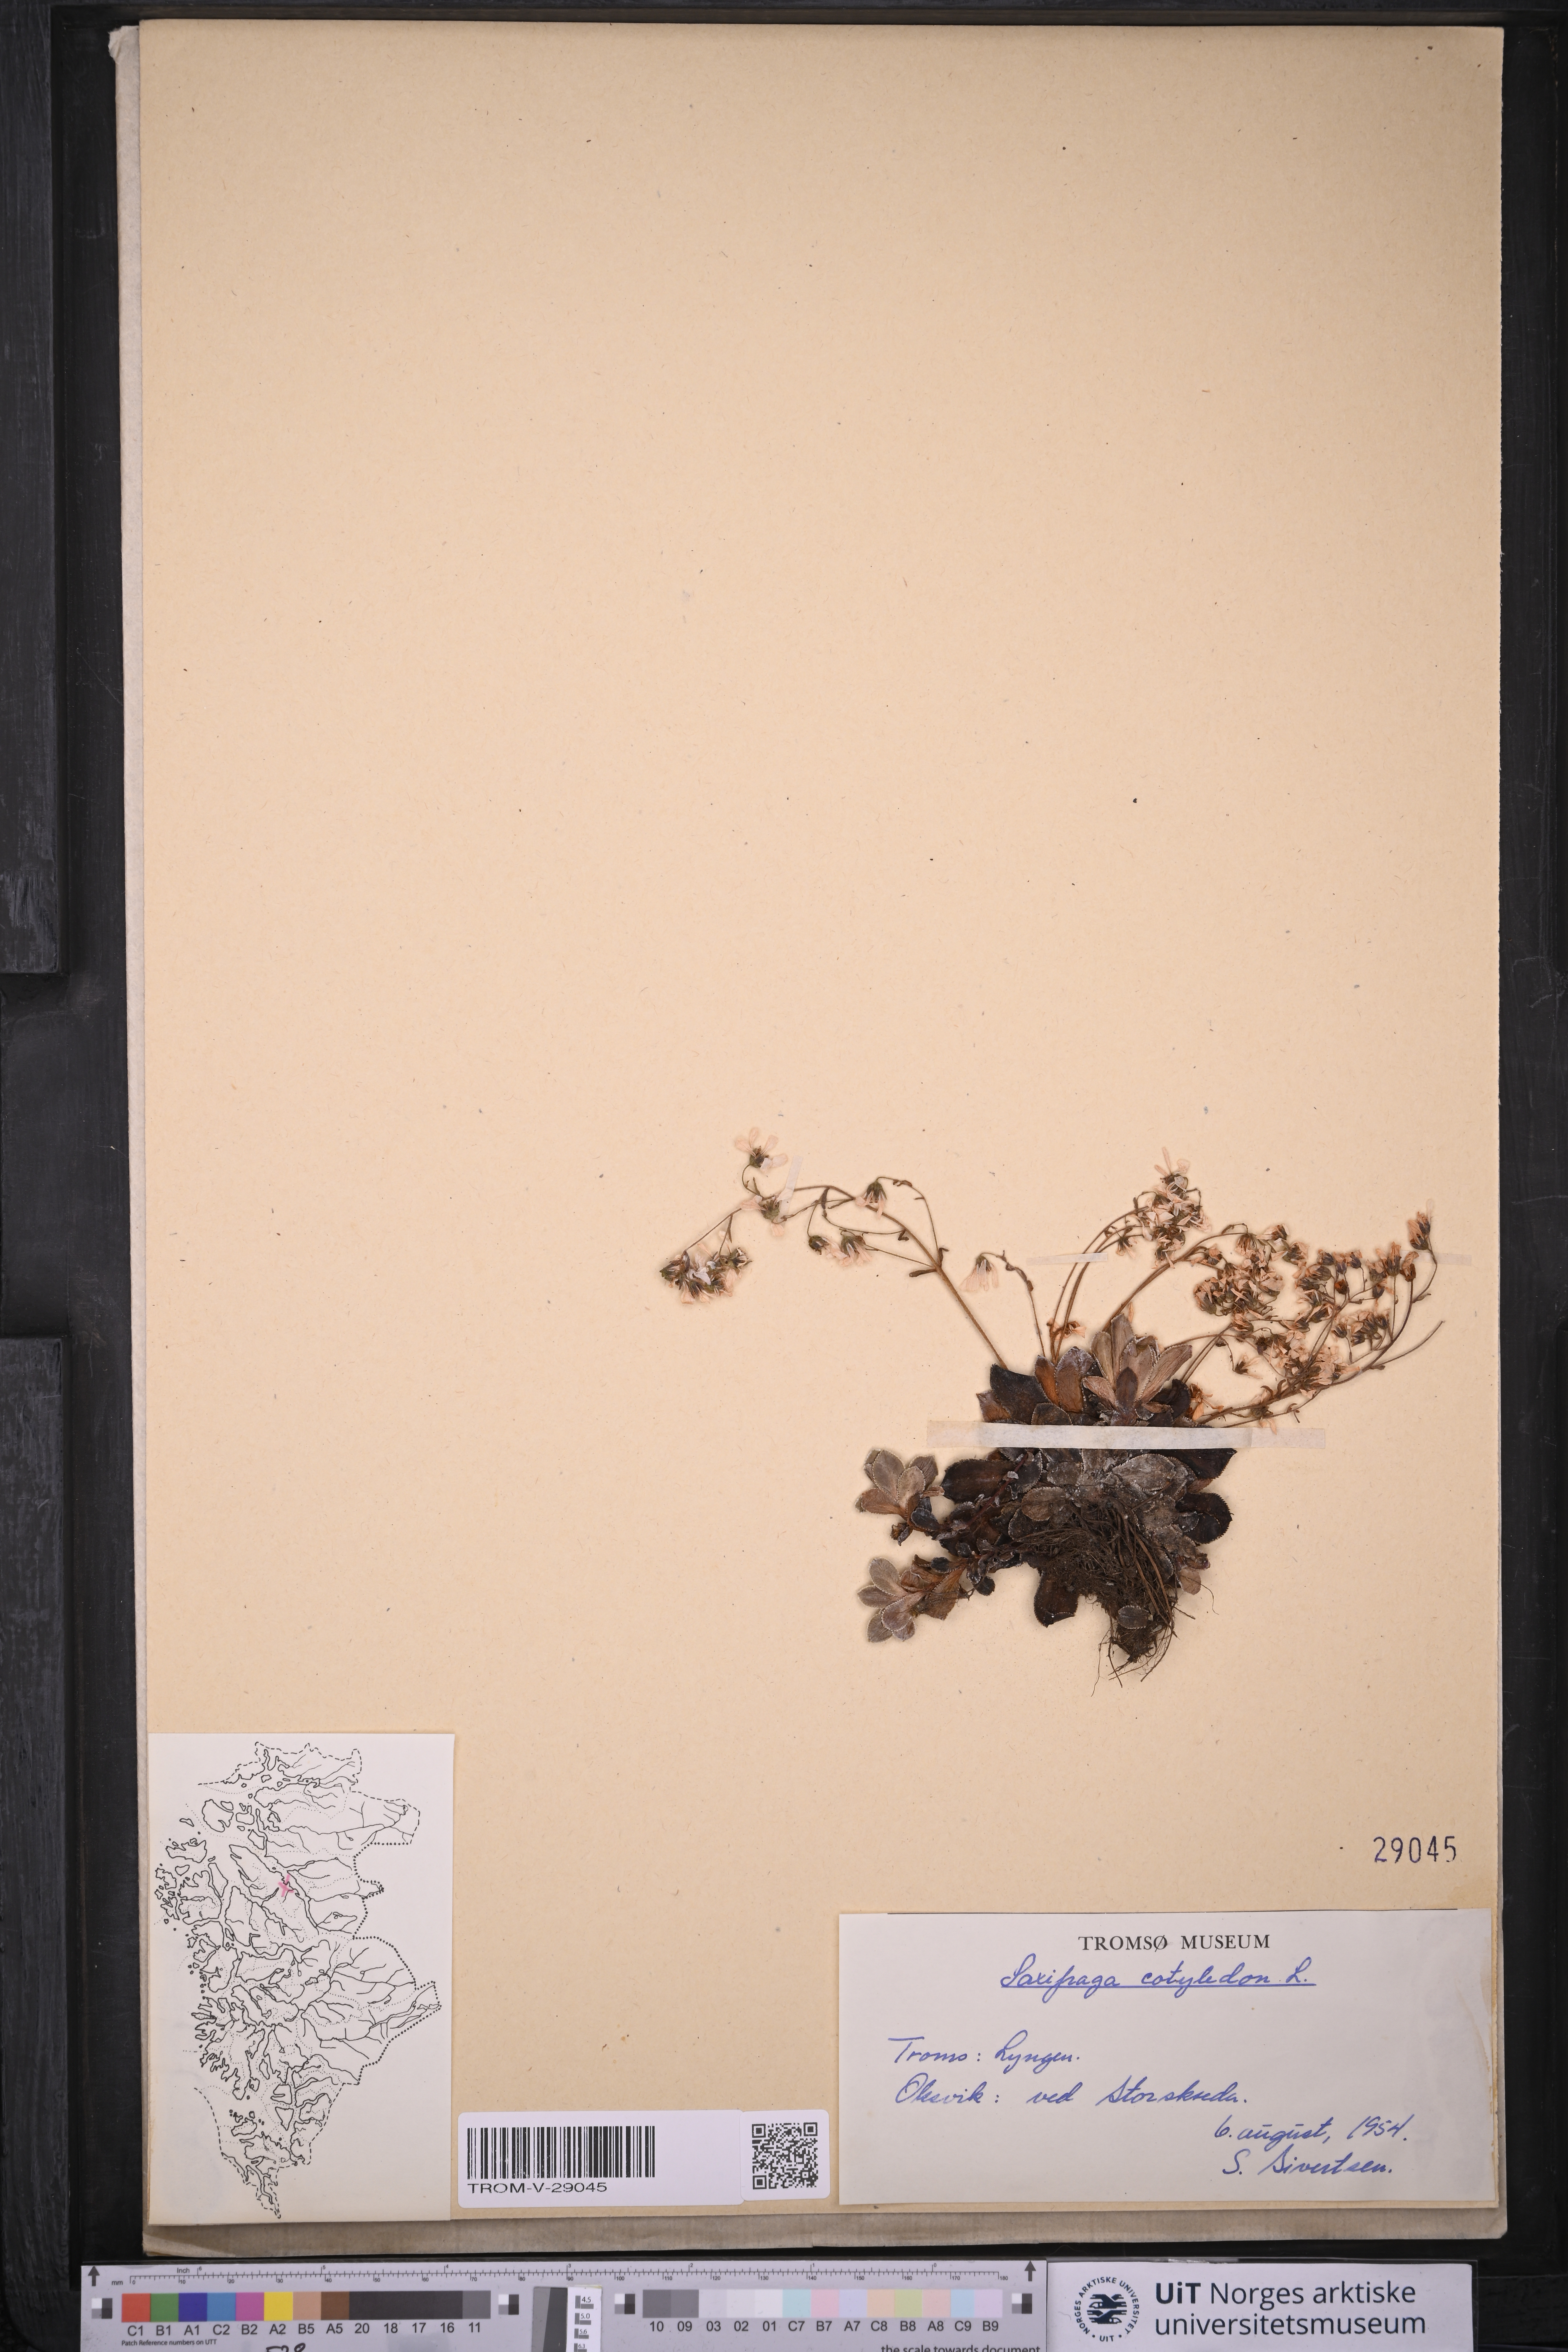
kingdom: Plantae
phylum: Tracheophyta
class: Magnoliopsida
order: Saxifragales
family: Saxifragaceae
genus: Saxifraga
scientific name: Saxifraga cotyledon
